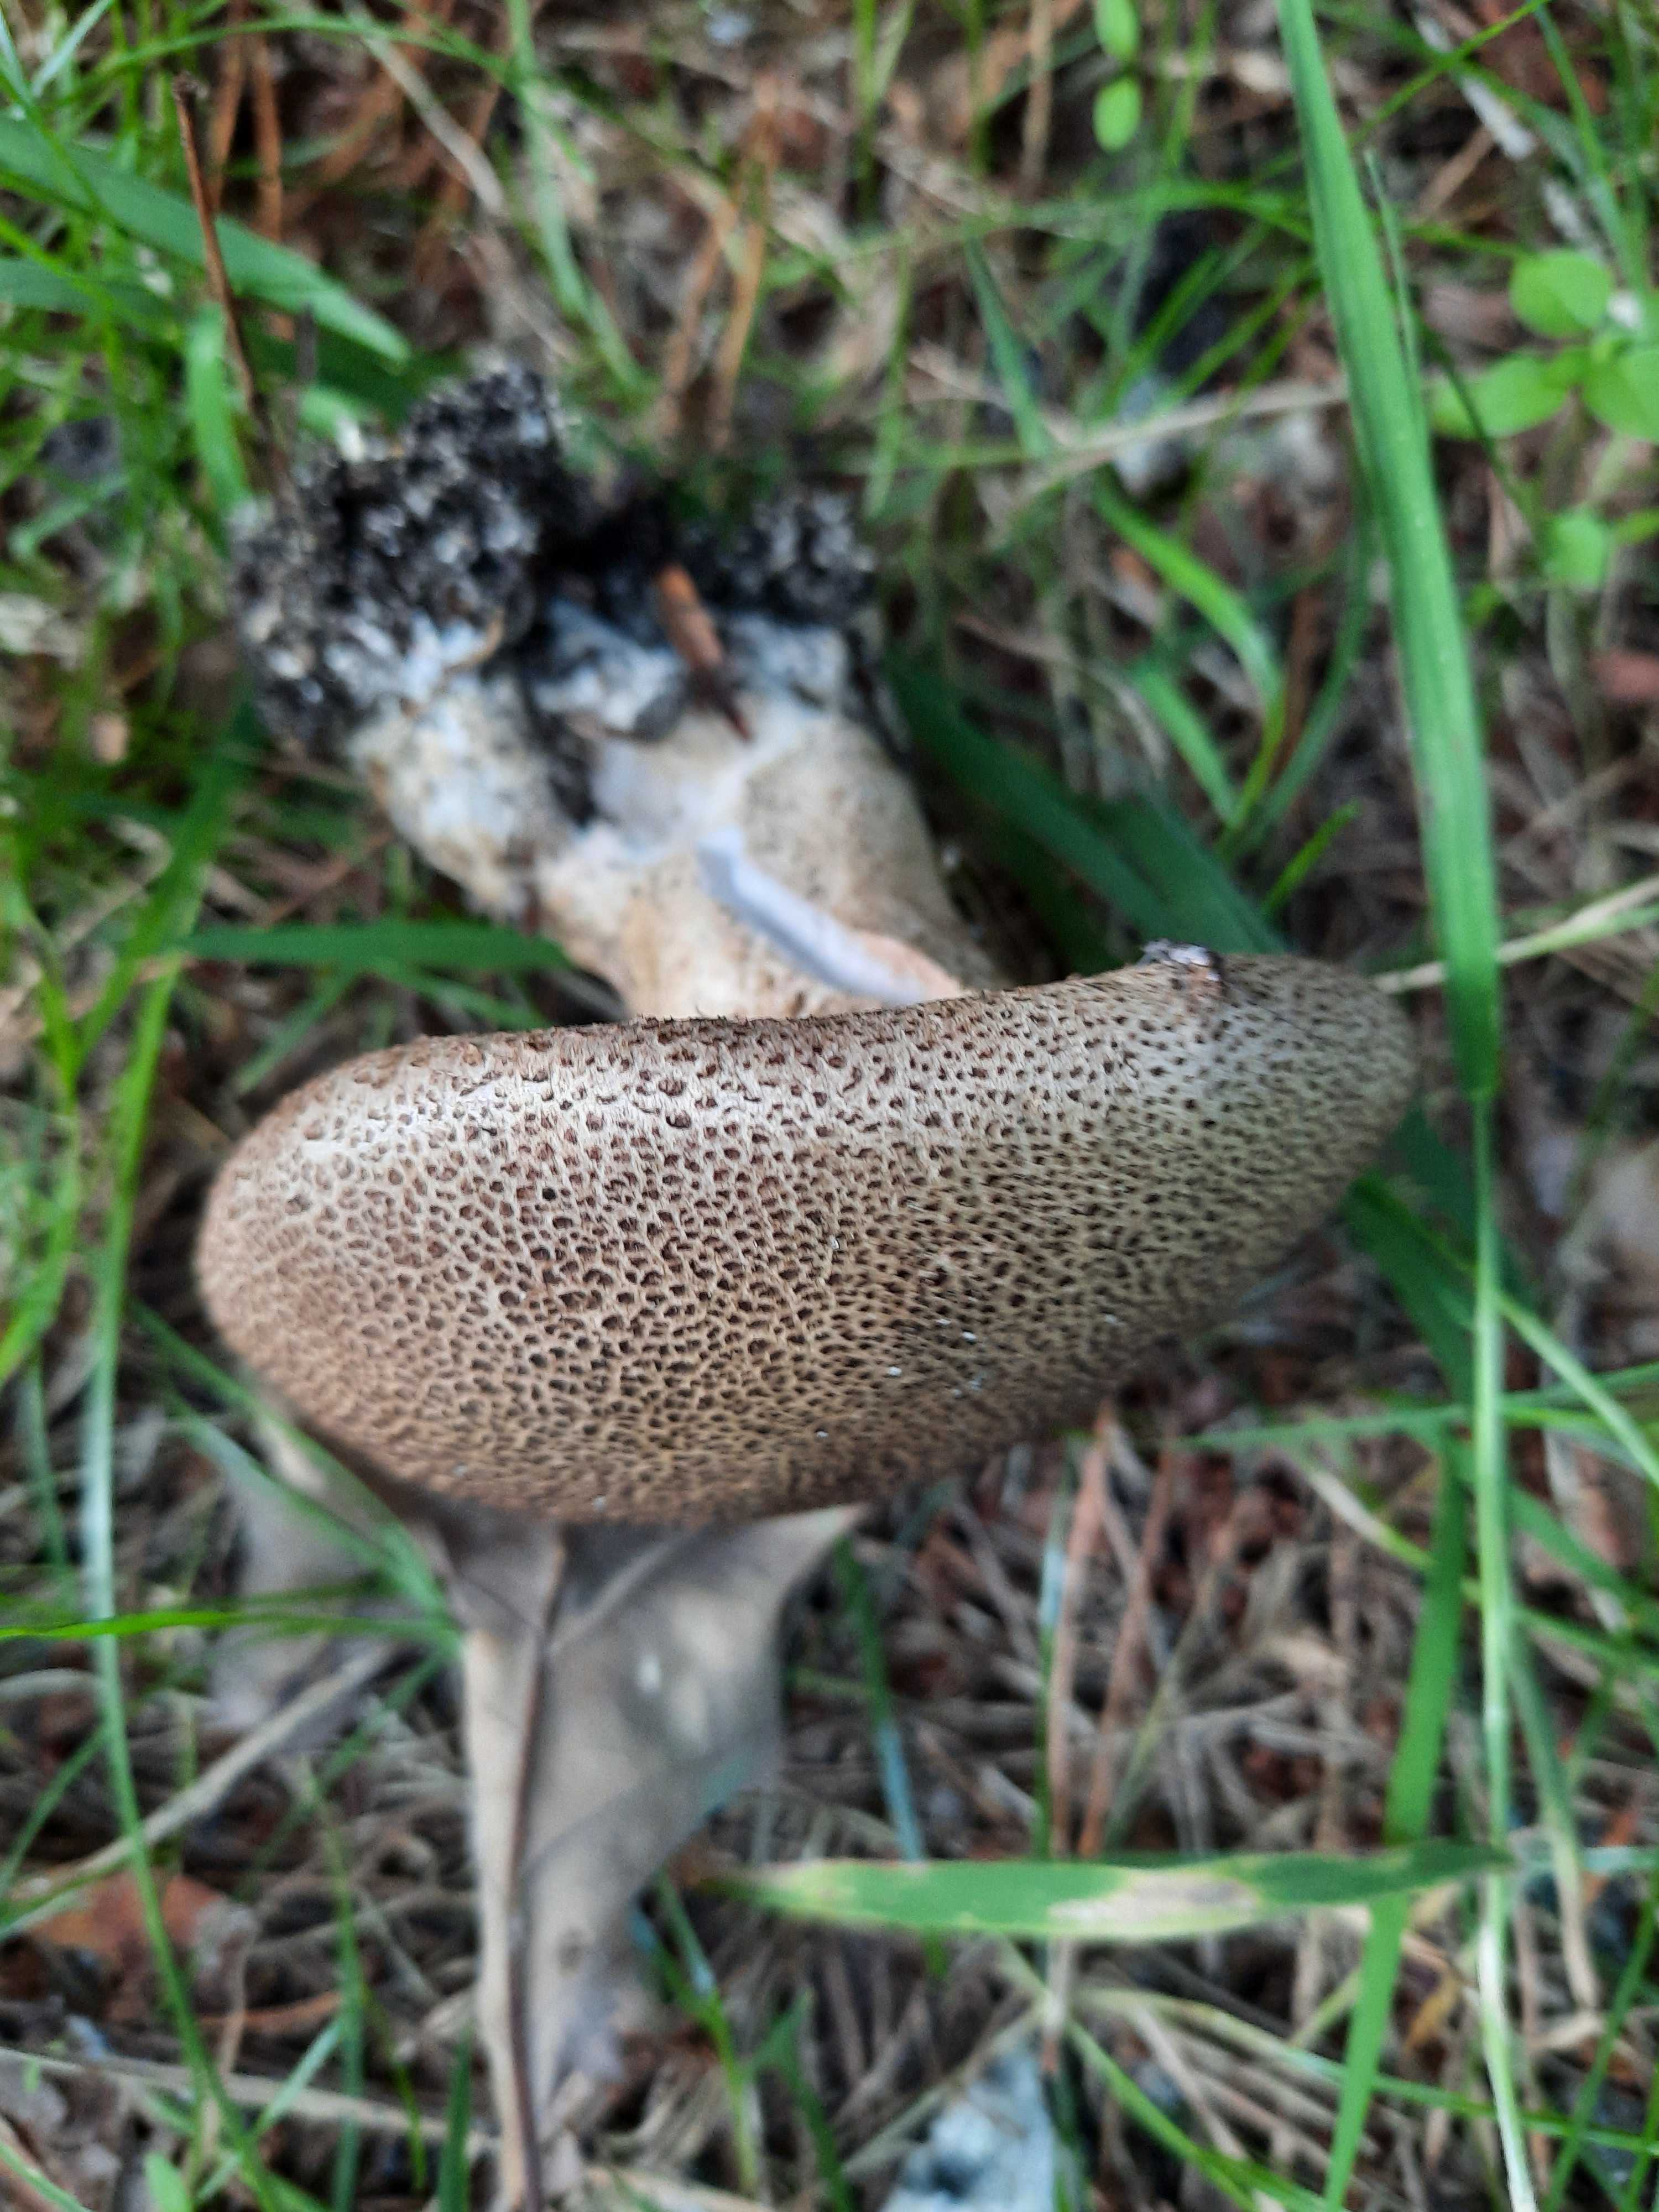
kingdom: Fungi
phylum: Basidiomycota
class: Agaricomycetes
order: Boletales
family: Sclerodermataceae
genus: Scleroderma
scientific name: Scleroderma verrucosum
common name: stilket bruskbold
